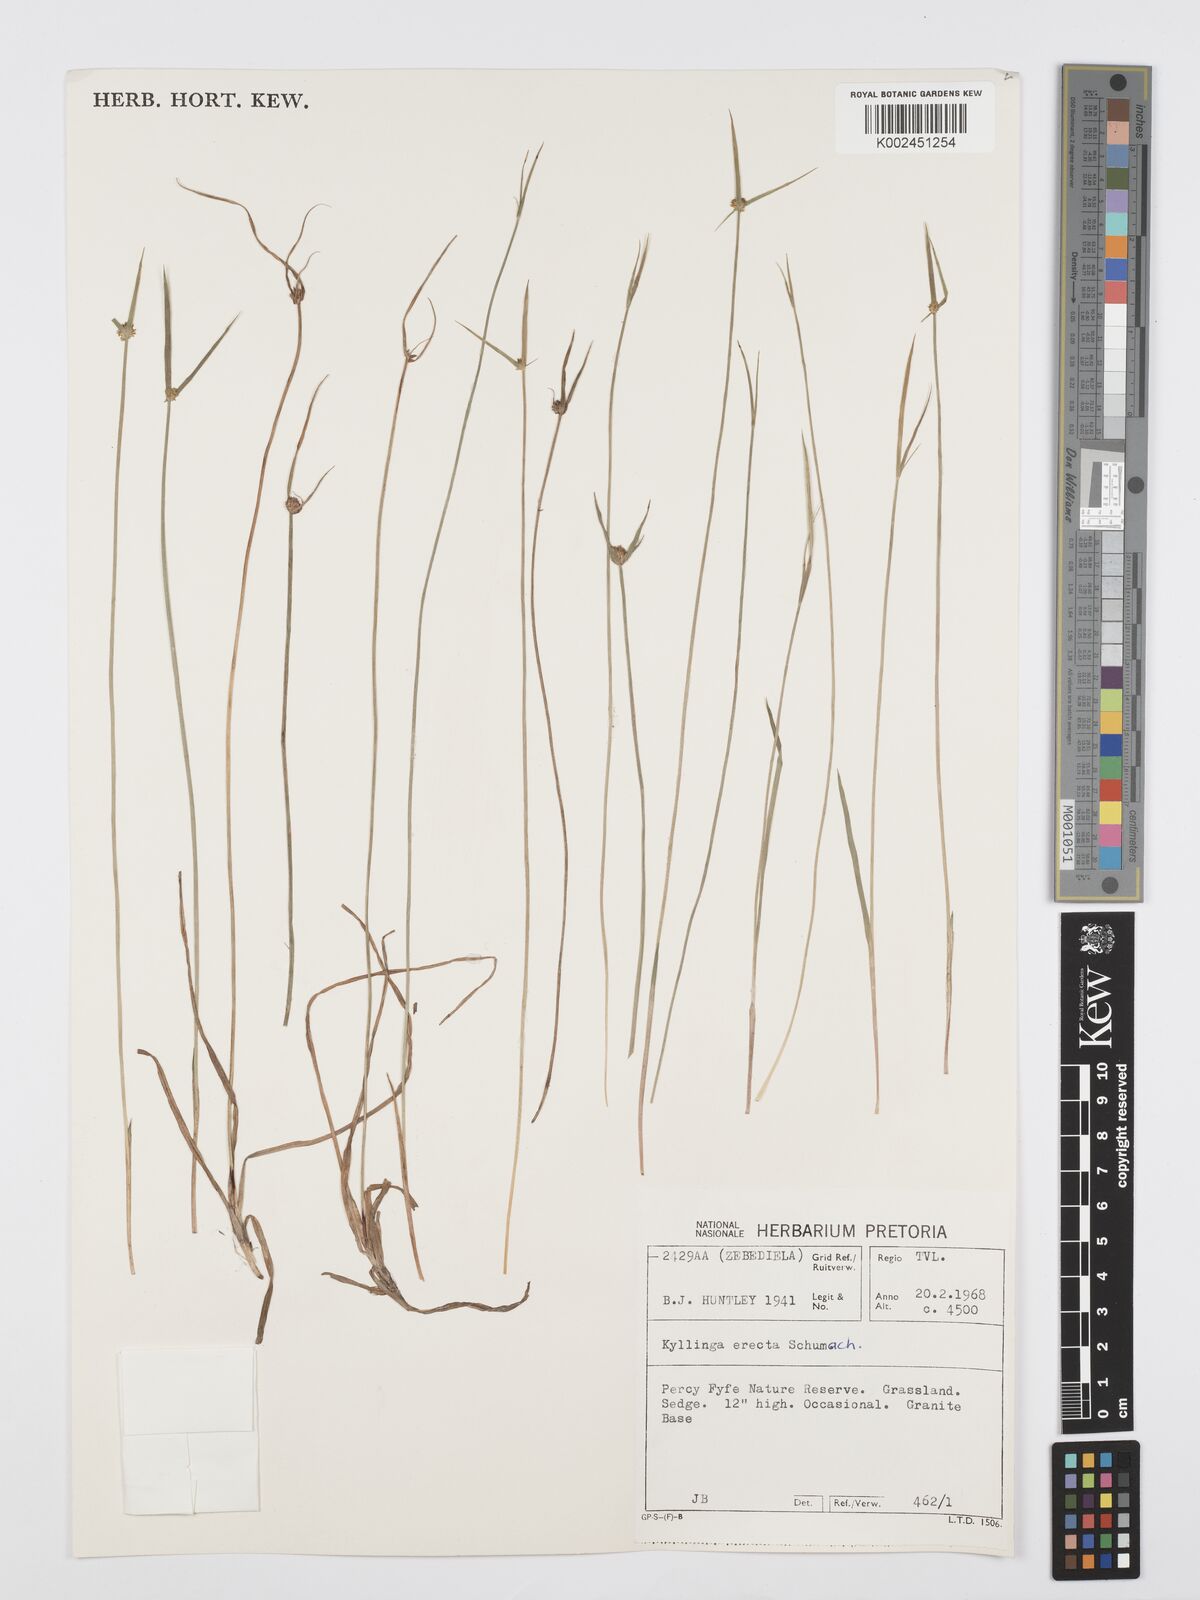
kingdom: Plantae
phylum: Tracheophyta
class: Liliopsida
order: Poales
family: Cyperaceae
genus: Cyperus
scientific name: Cyperus erectus
